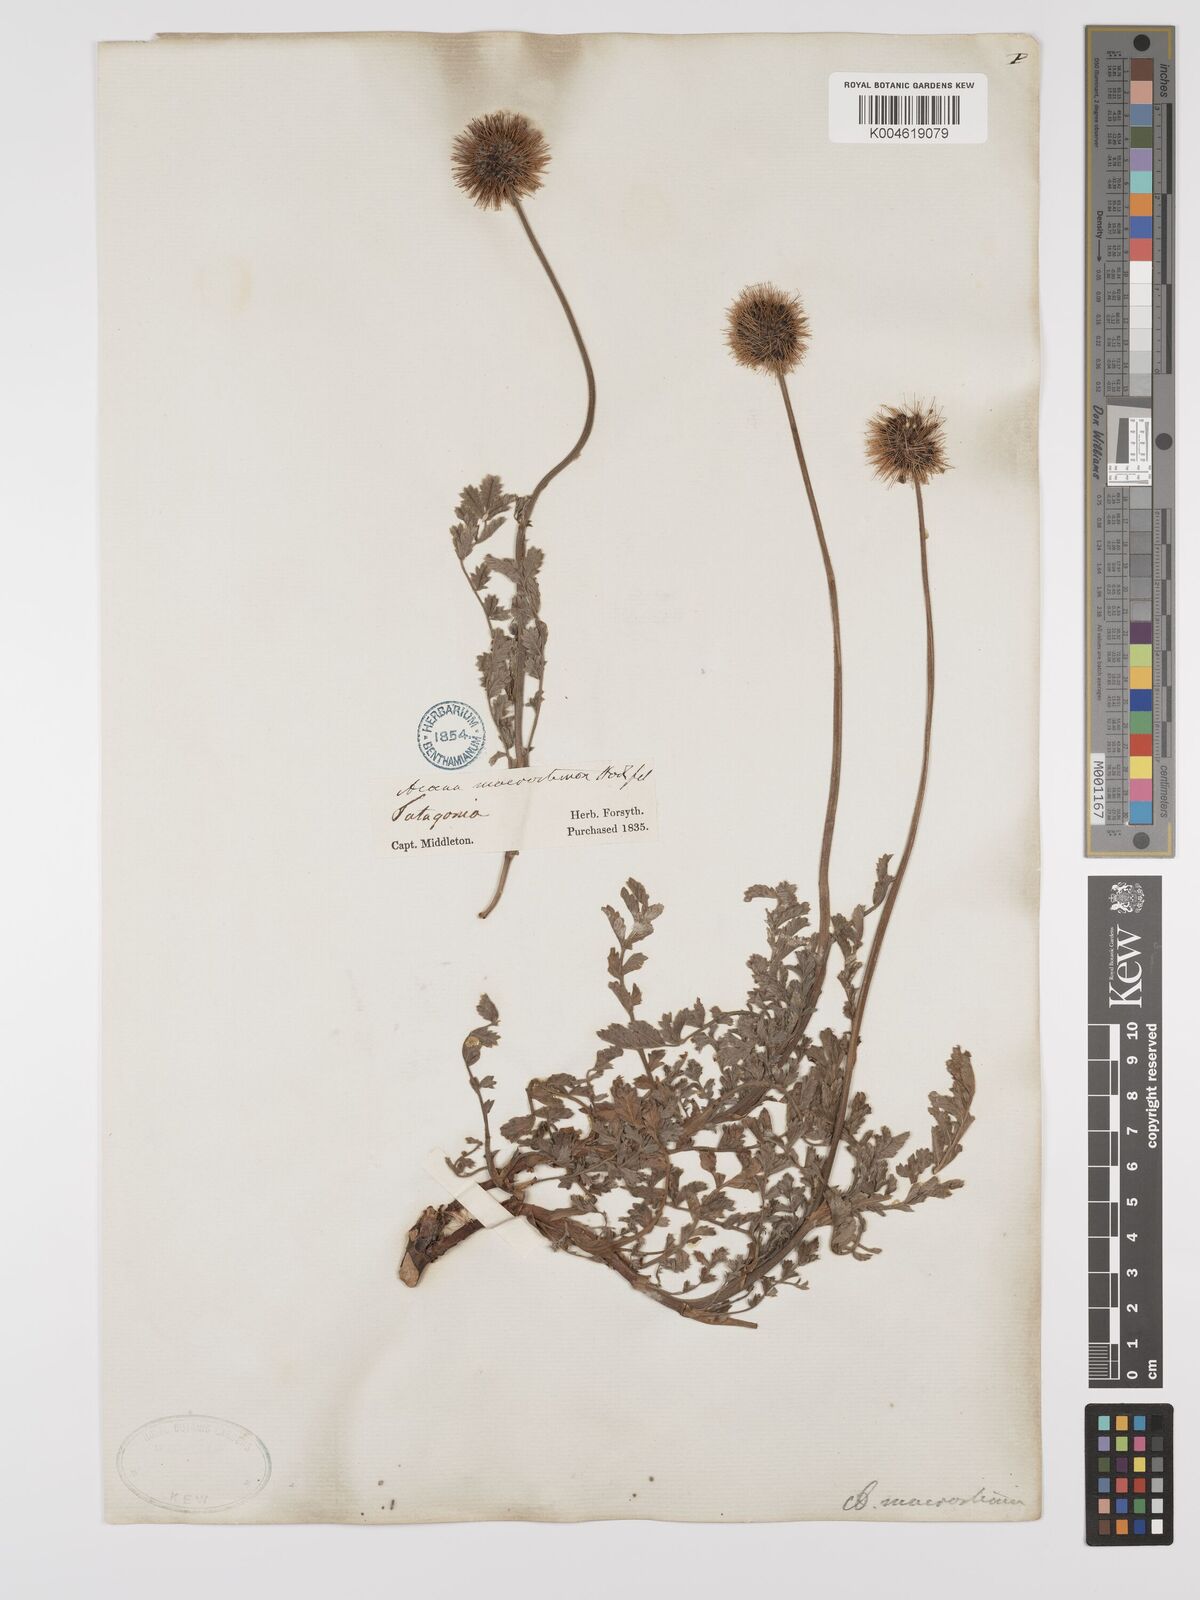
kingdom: Plantae
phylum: Tracheophyta
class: Magnoliopsida
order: Rosales
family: Rosaceae
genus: Acaena
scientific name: Acaena magellanica
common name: New zealand burr
